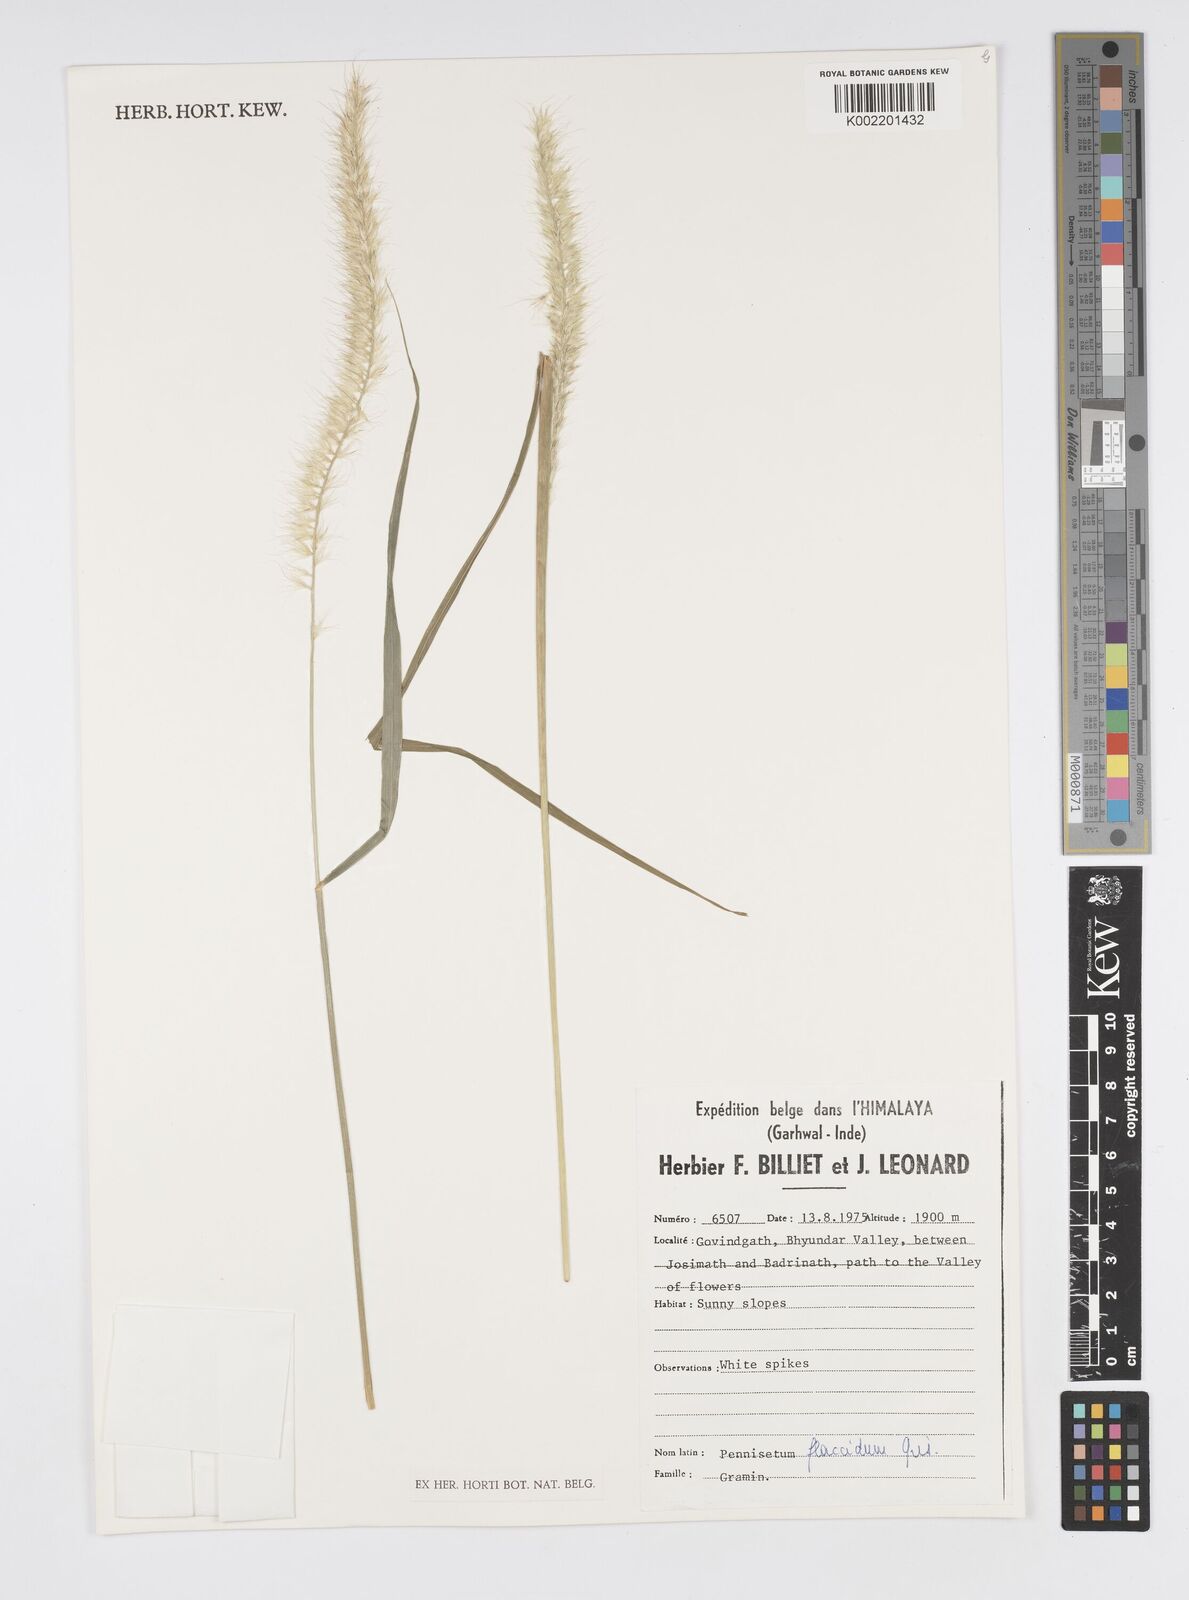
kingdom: Plantae
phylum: Tracheophyta
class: Liliopsida
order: Poales
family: Poaceae
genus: Cenchrus
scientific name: Cenchrus flaccidus
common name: Flaccid grass
